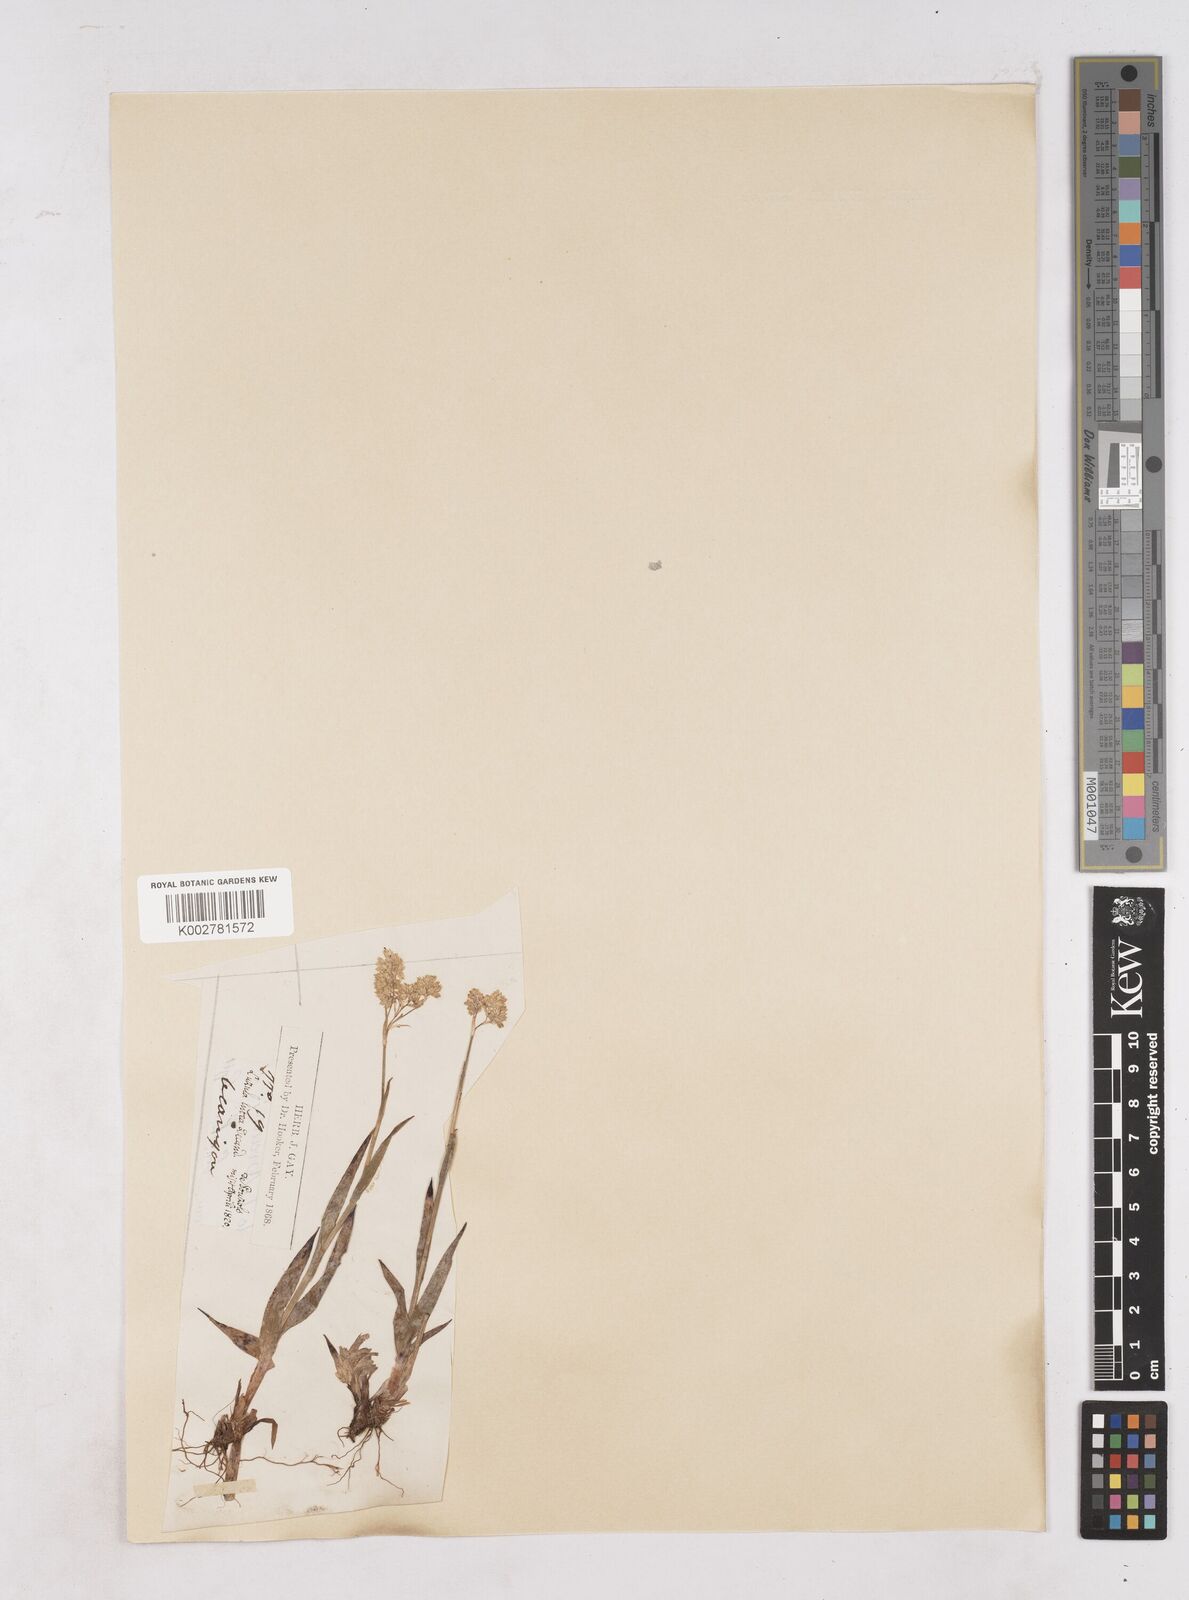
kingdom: Plantae
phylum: Tracheophyta
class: Liliopsida
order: Poales
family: Juncaceae
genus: Luzula
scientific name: Luzula lutea
